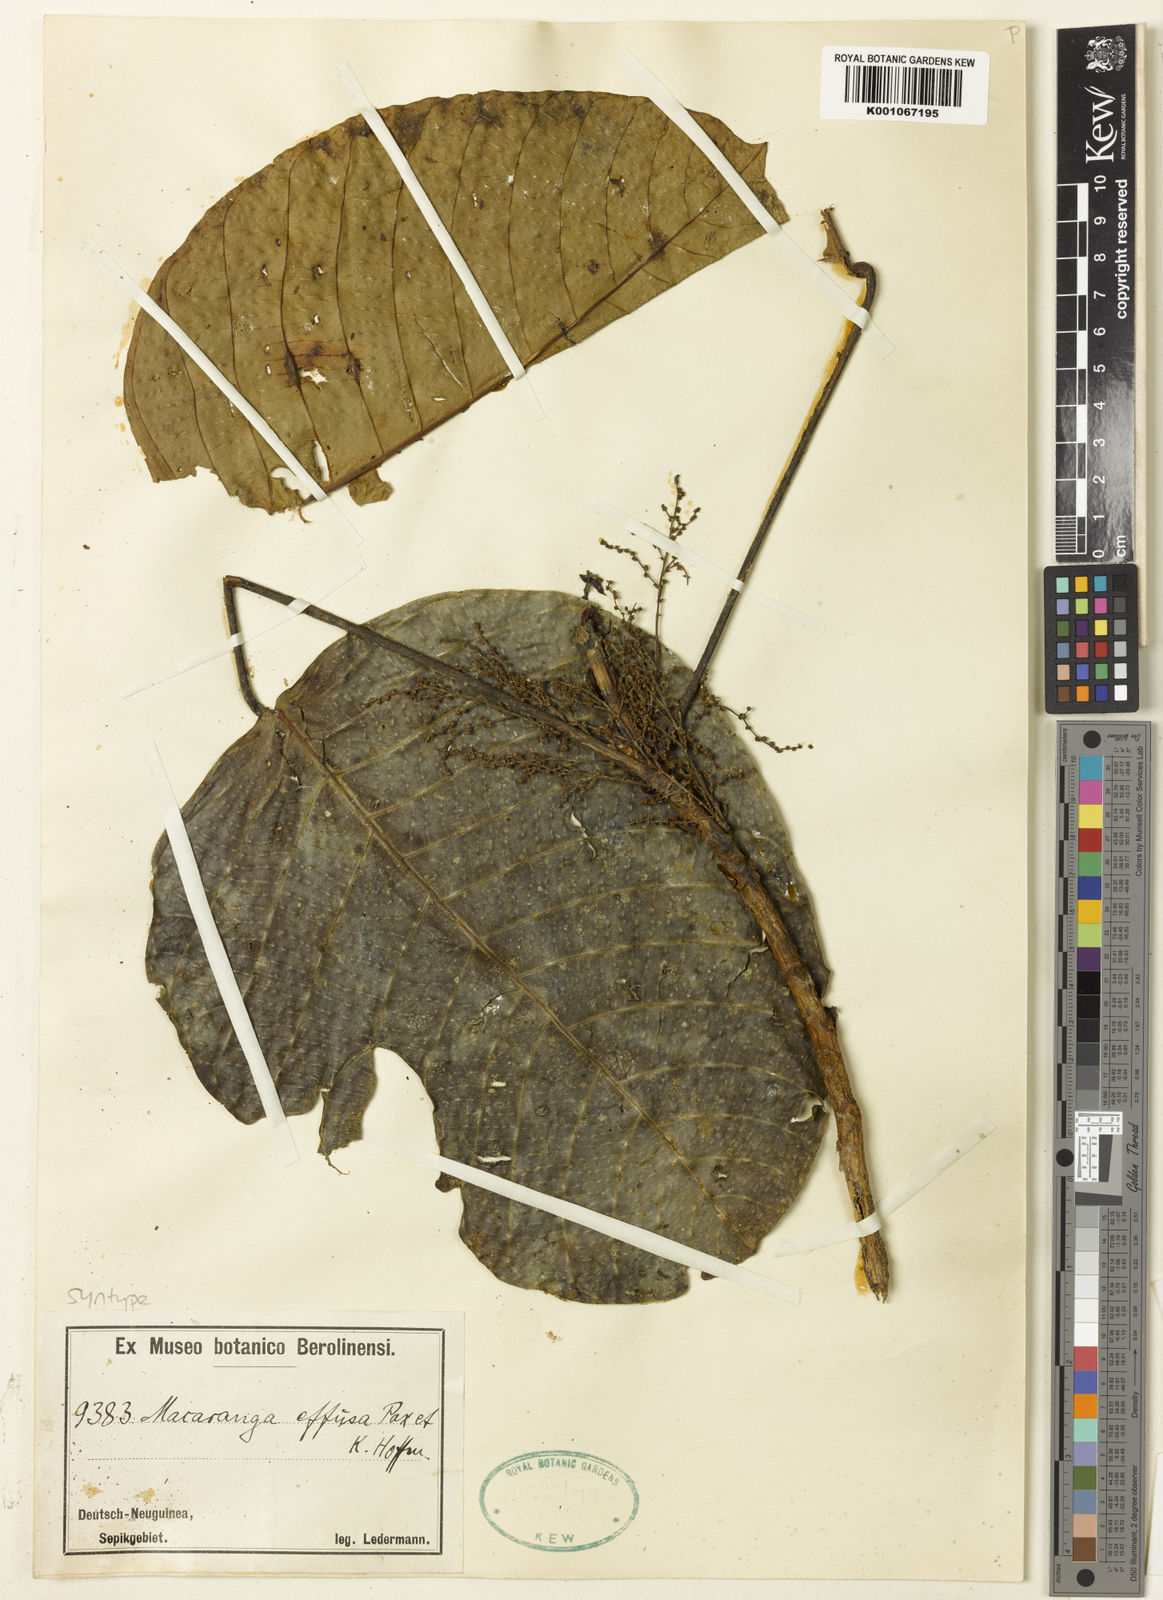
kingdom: Plantae
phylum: Tracheophyta
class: Magnoliopsida
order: Malpighiales
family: Euphorbiaceae
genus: Macaranga
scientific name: Macaranga inermis
